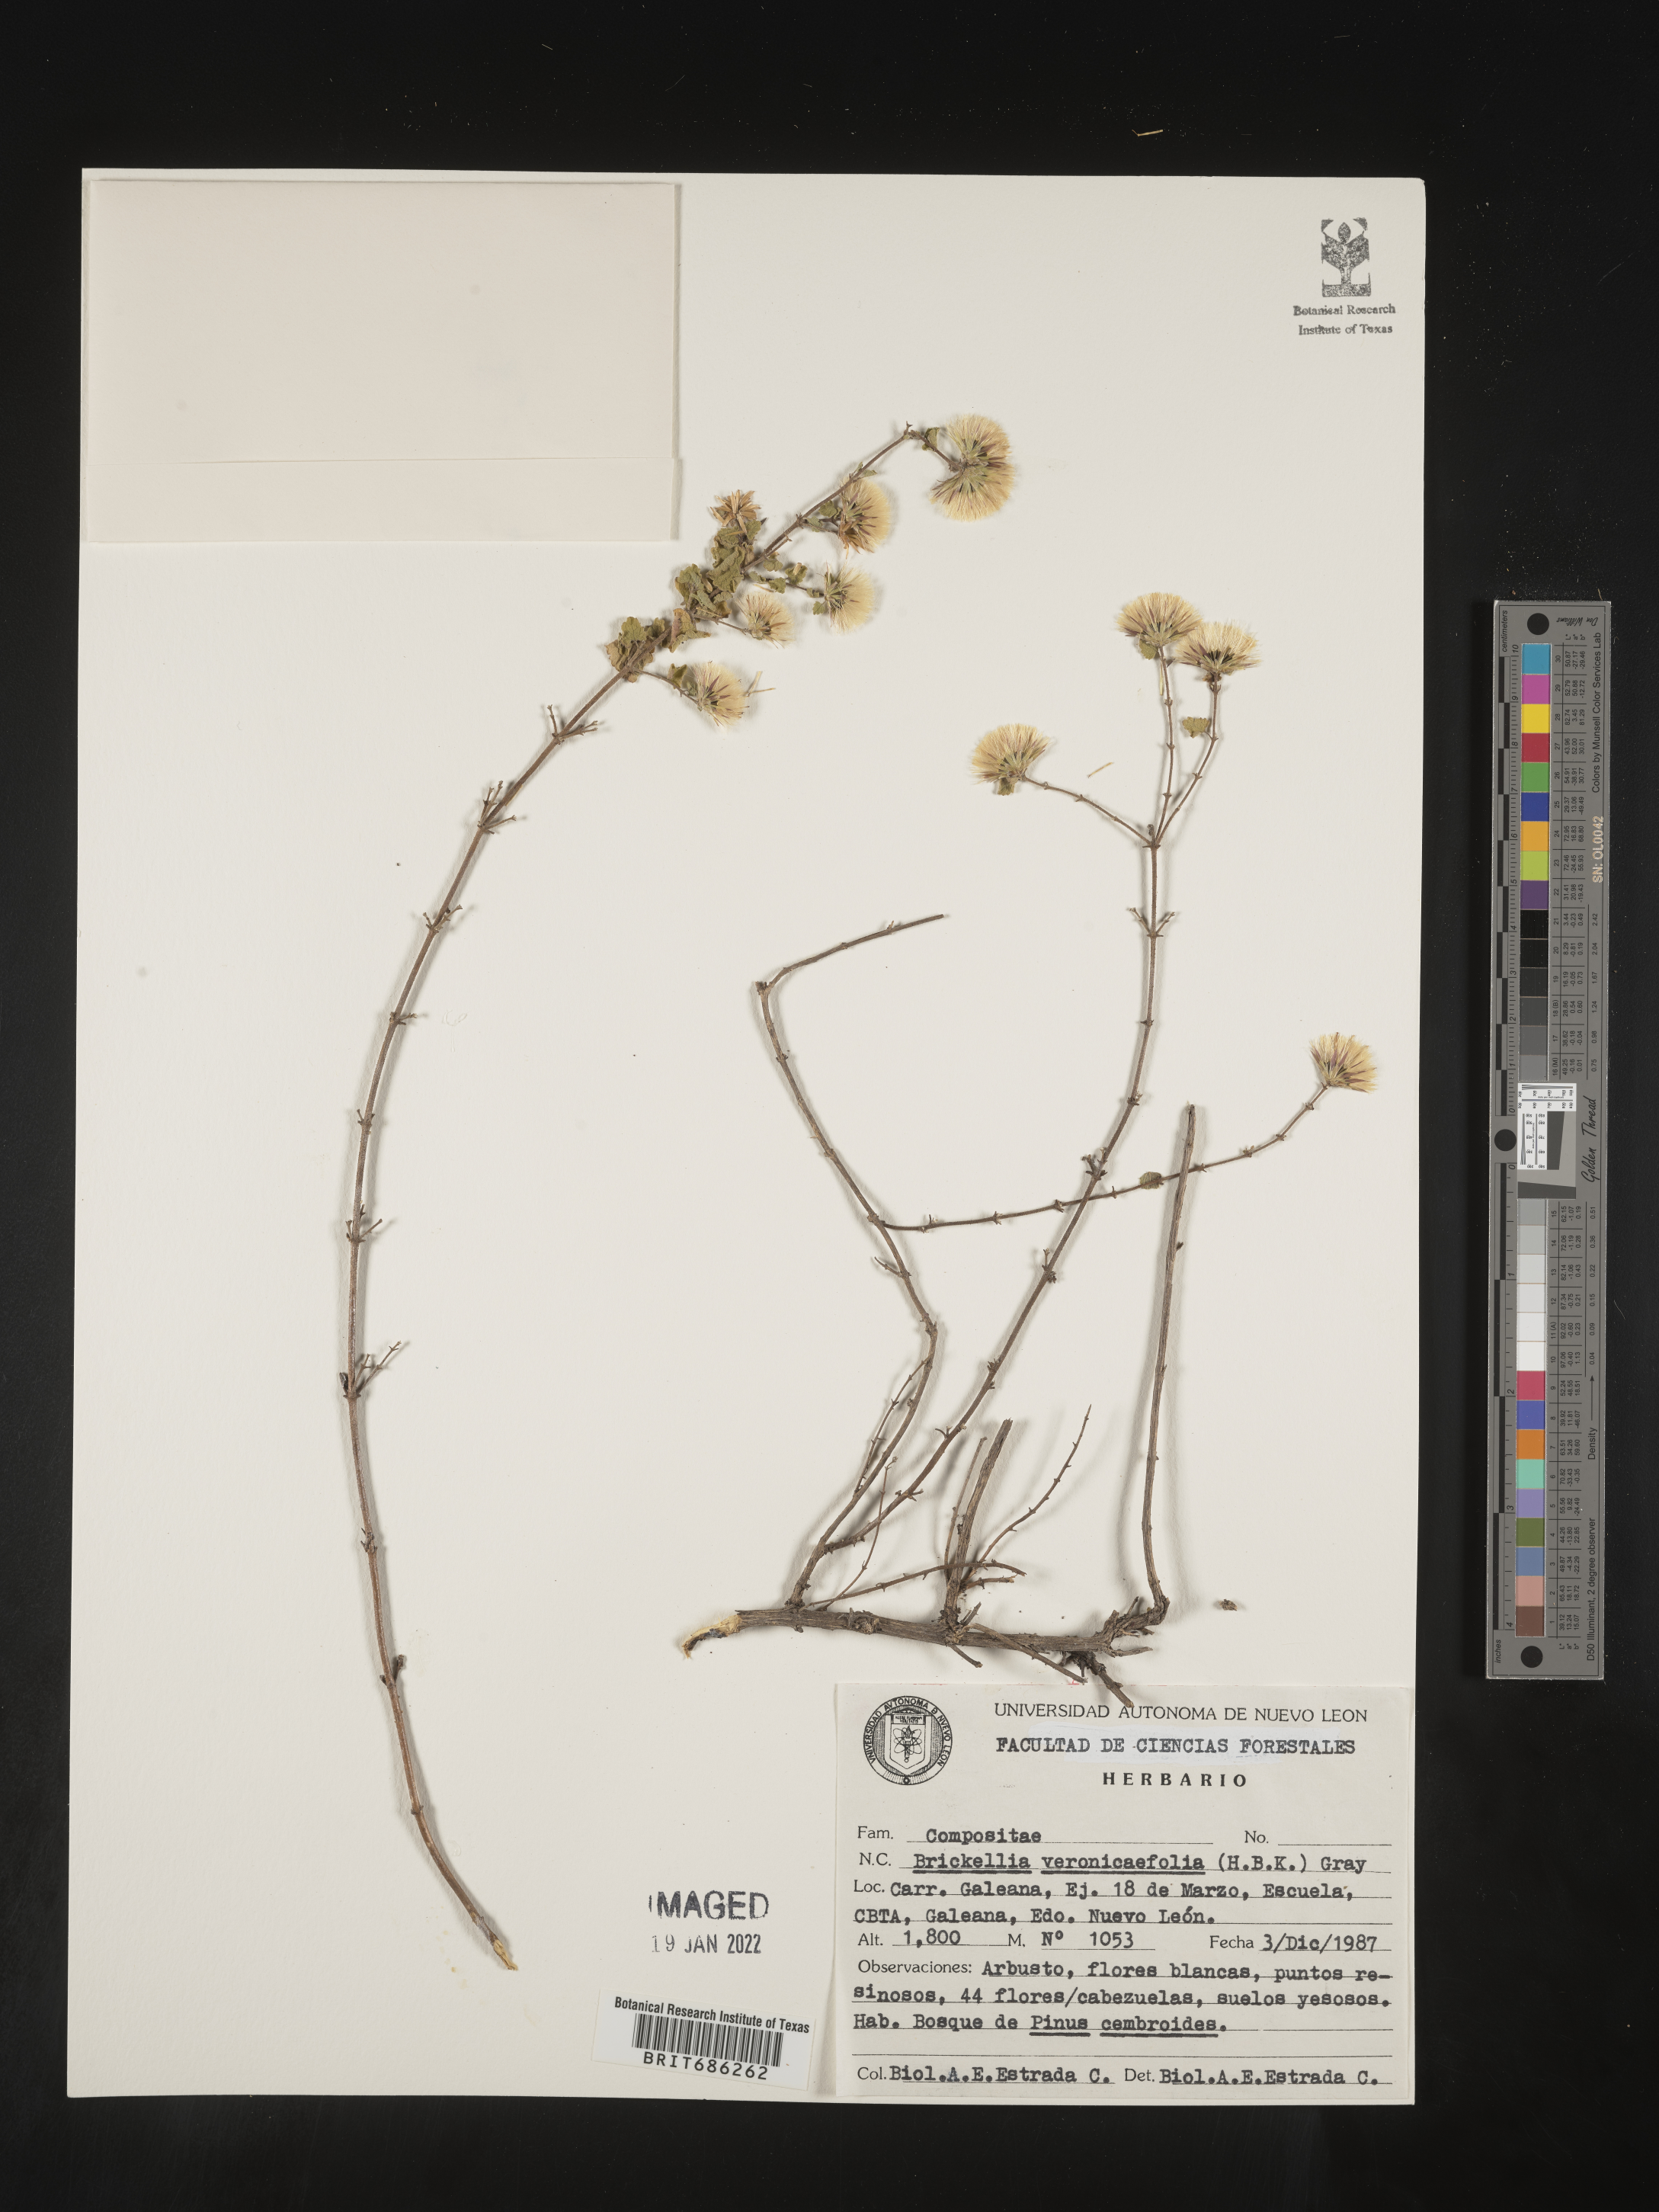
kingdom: Plantae
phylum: Tracheophyta
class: Magnoliopsida
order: Asterales
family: Asteraceae
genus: Brickellia
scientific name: Brickellia veronicifolia
